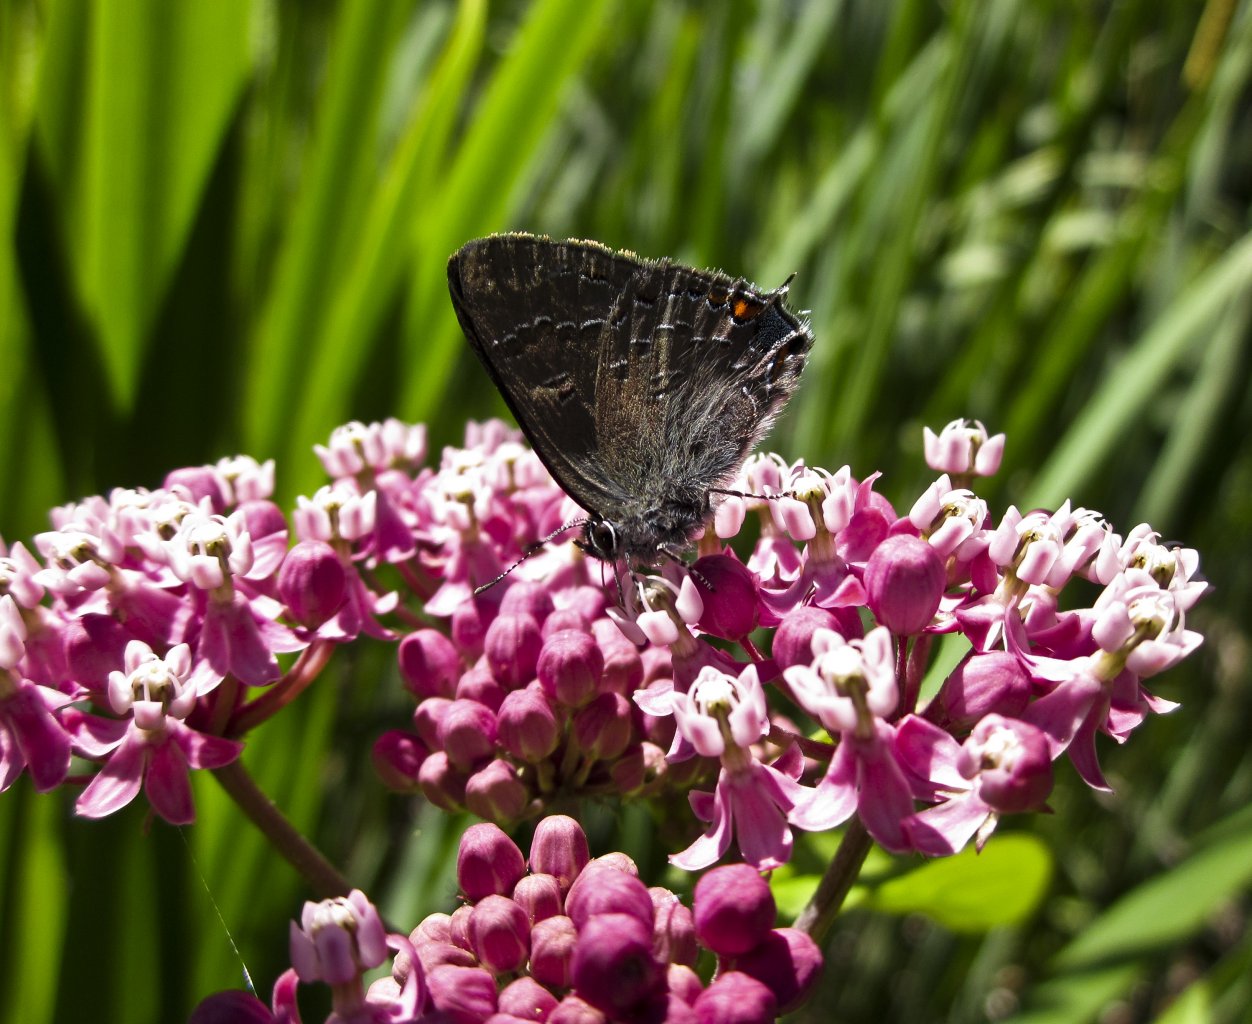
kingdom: Animalia
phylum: Arthropoda
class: Insecta
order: Lepidoptera
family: Lycaenidae
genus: Satyrium
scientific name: Satyrium calanus
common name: Banded Hairstreak
